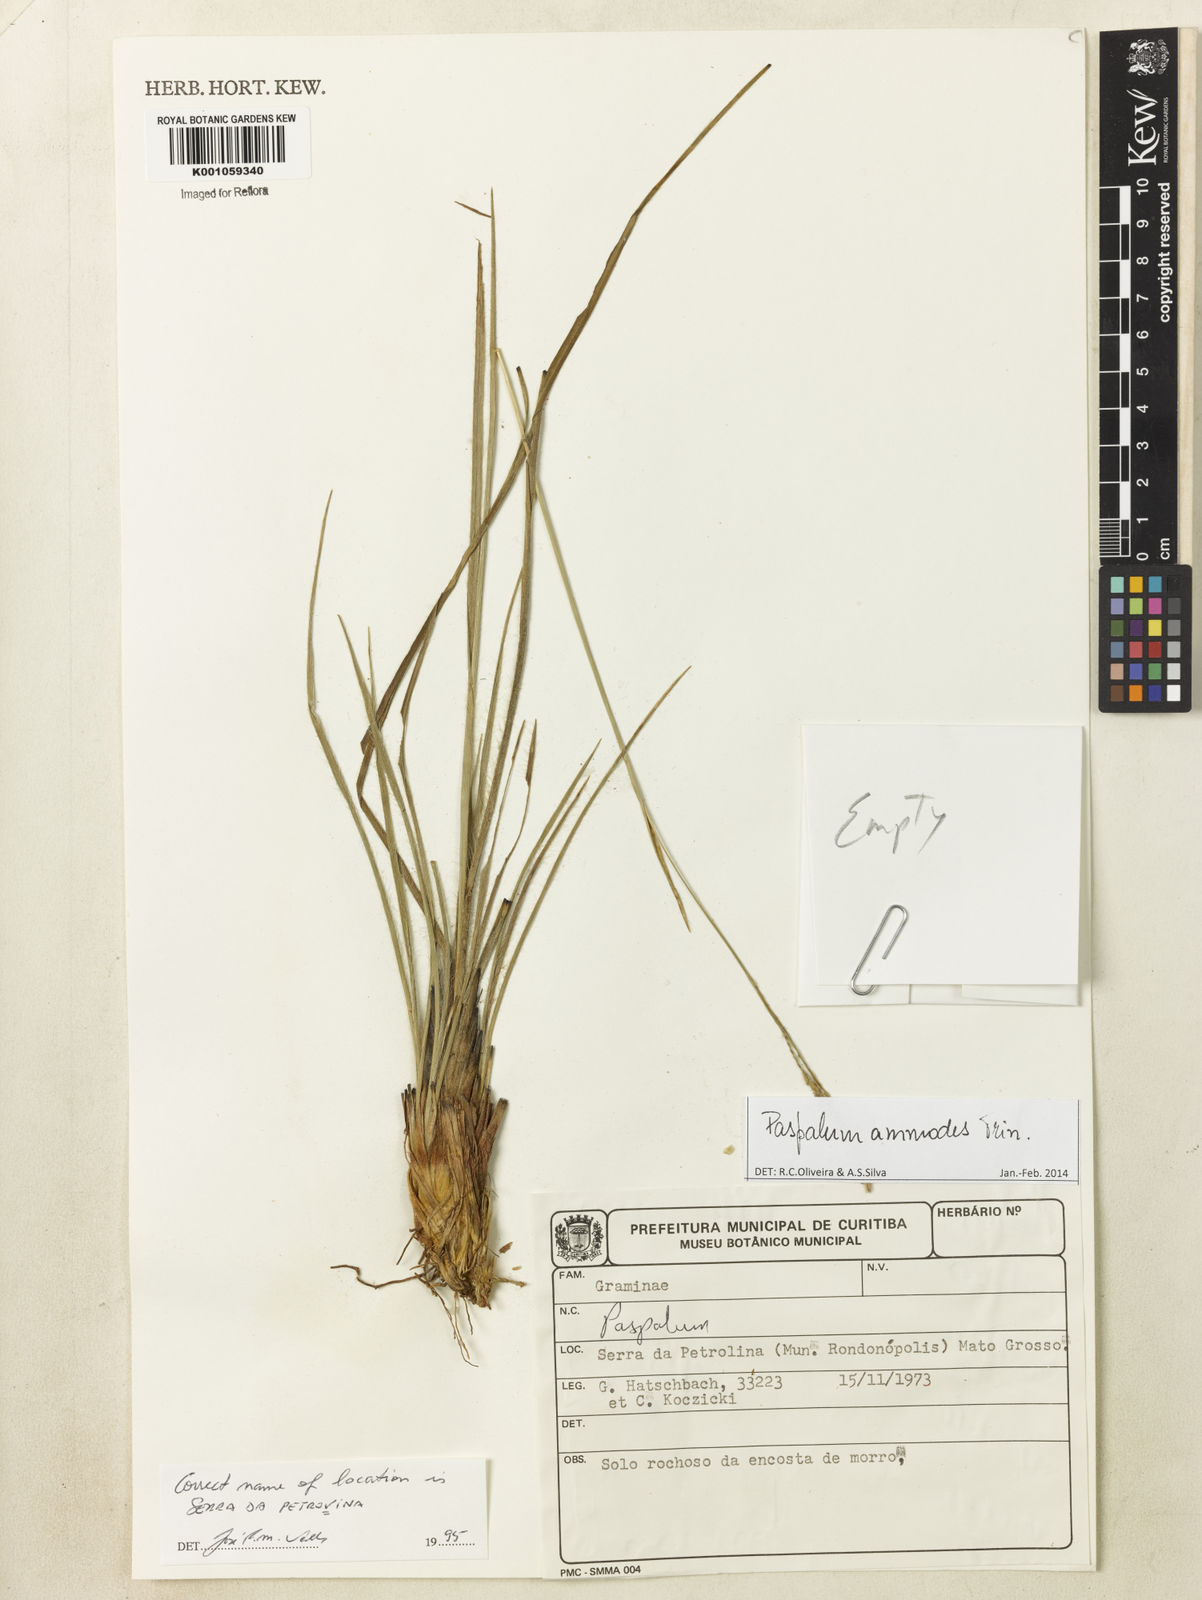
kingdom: Plantae
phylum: Tracheophyta
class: Liliopsida
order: Poales
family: Poaceae
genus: Paspalum
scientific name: Paspalum ammodes
